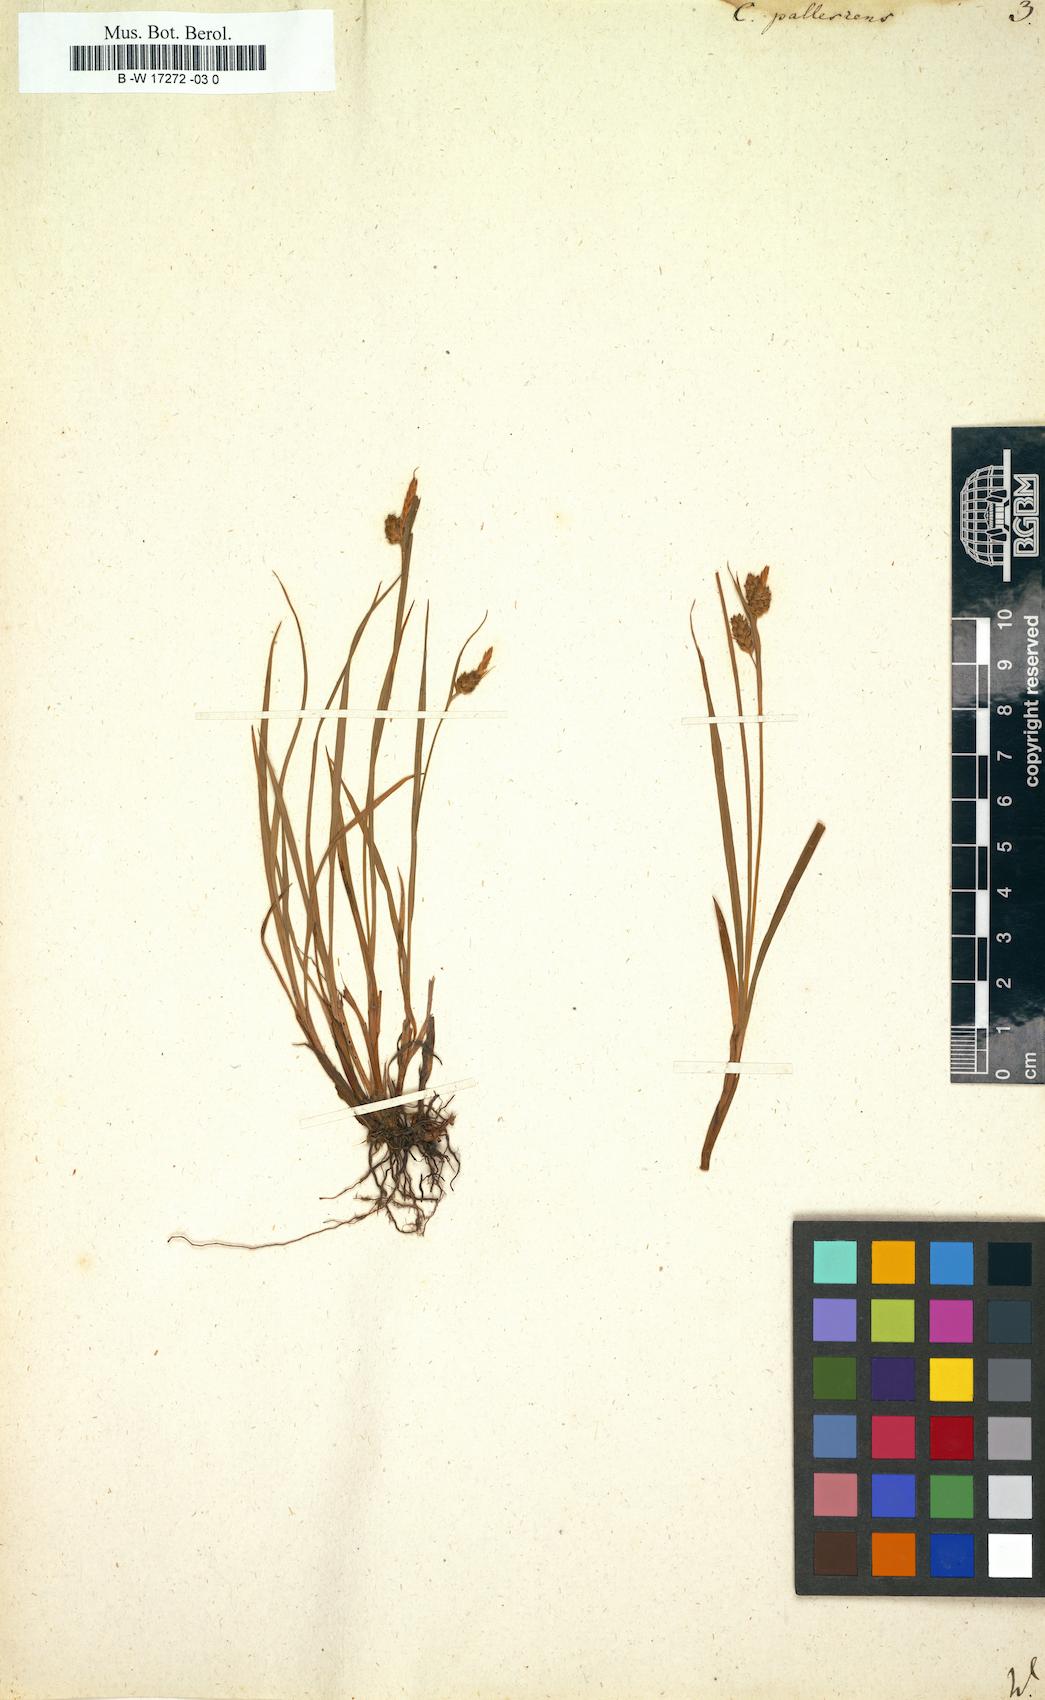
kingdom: Plantae
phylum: Tracheophyta
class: Liliopsida
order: Poales
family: Cyperaceae
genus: Carex
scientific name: Carex pallescens
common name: Pale sedge
